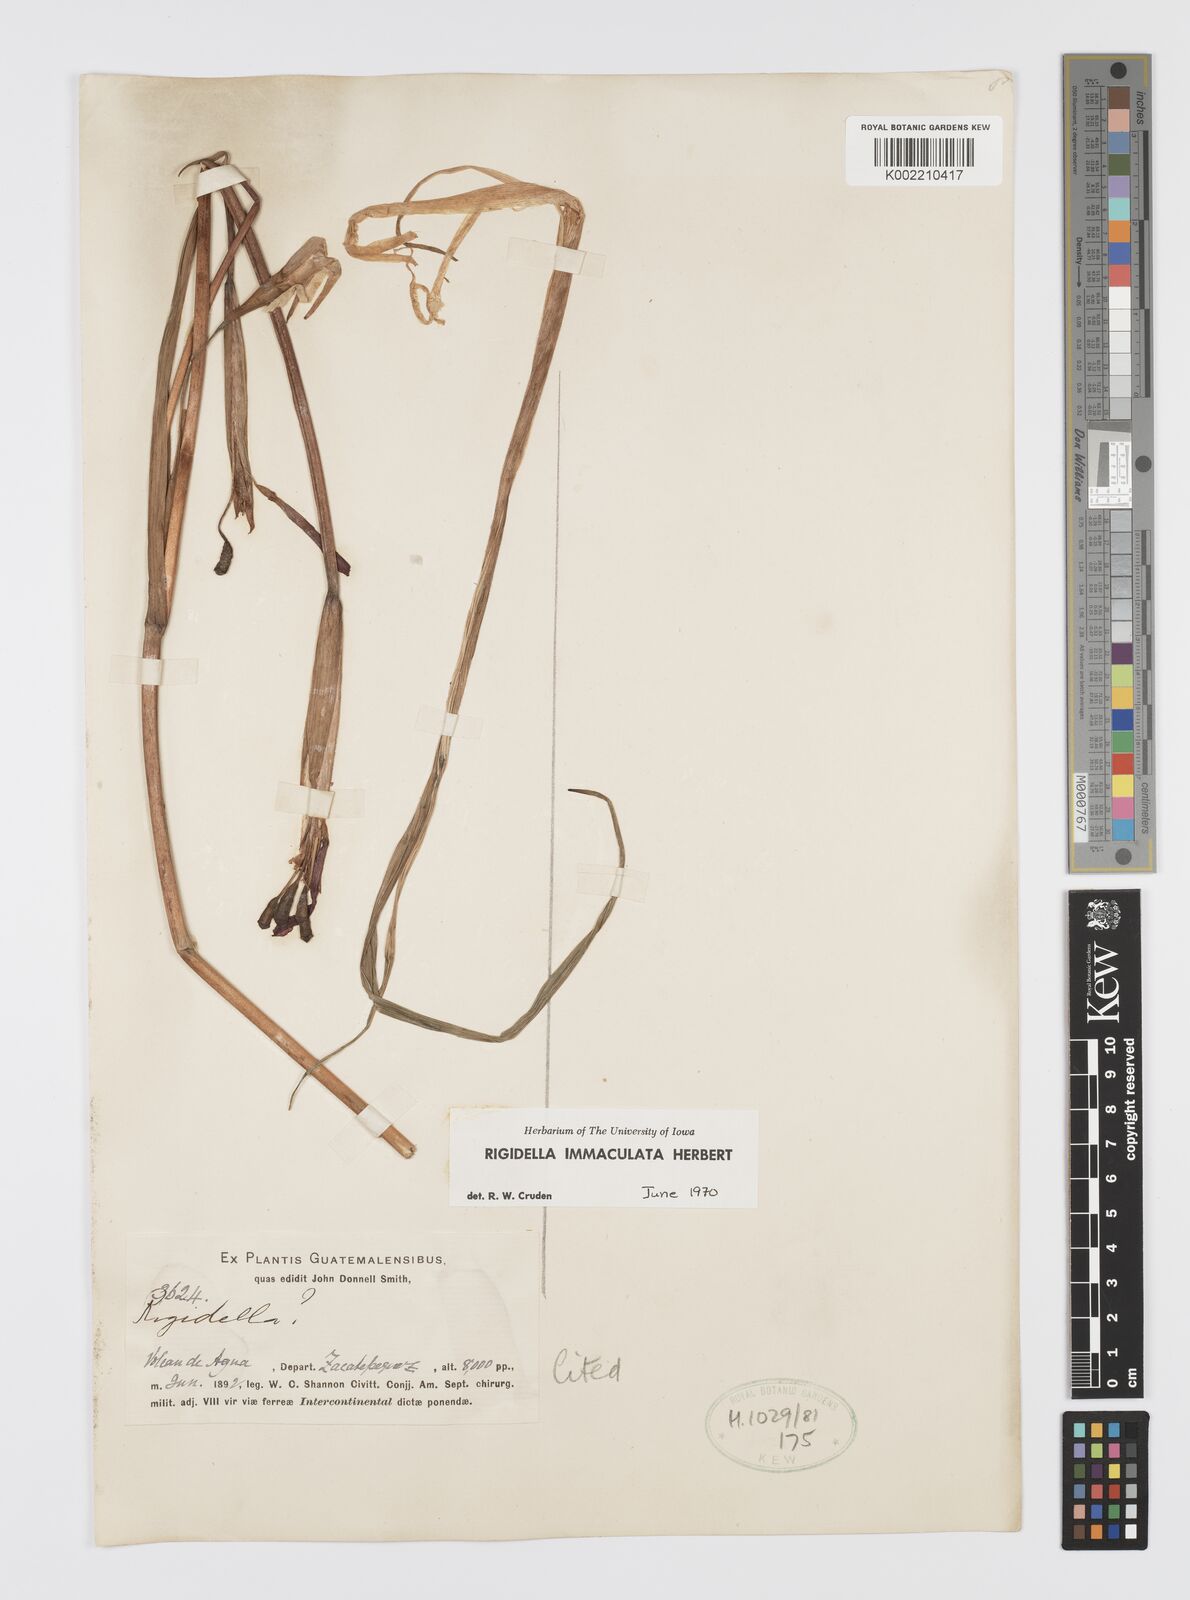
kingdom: Plantae
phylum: Tracheophyta
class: Liliopsida
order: Asparagales
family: Iridaceae
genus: Tigridia
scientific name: Tigridia immaculata
